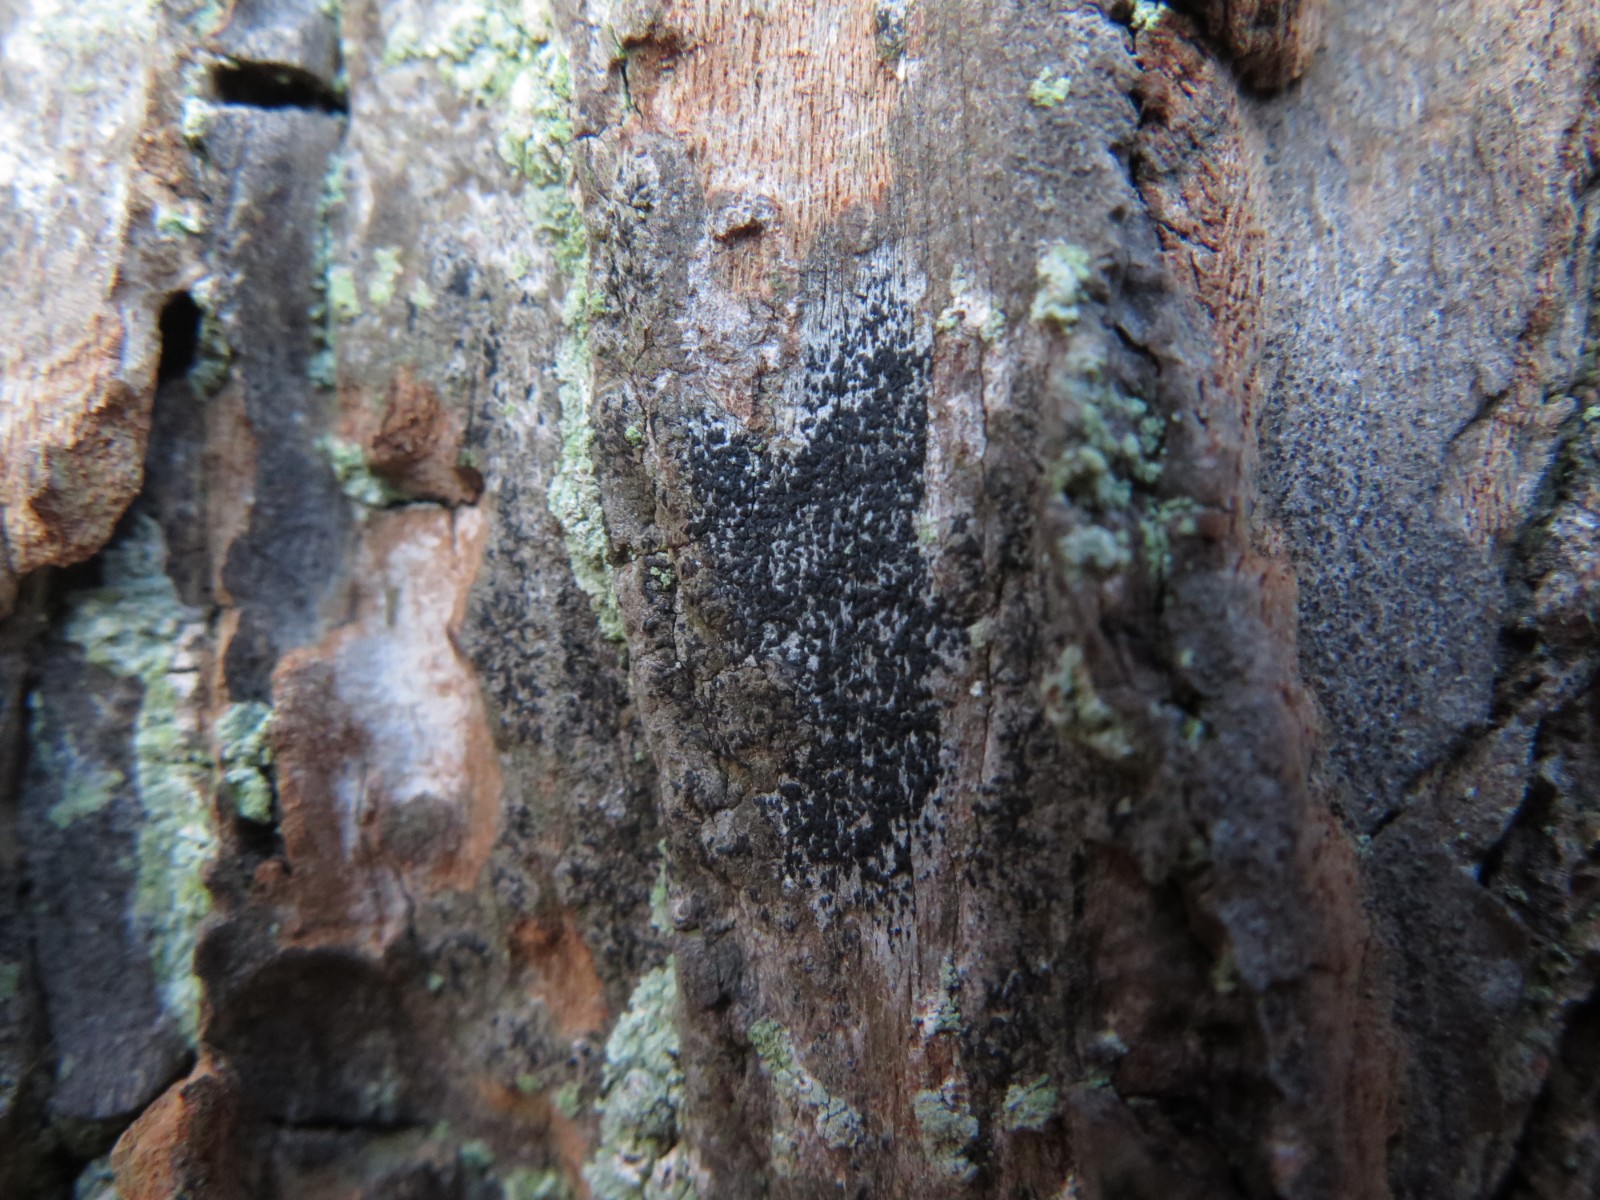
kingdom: Fungi
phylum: Ascomycota
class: Arthoniomycetes
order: Arthoniales
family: Arthoniaceae
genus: Arthonia
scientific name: Arthonia atra
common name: sort bogstavlav
